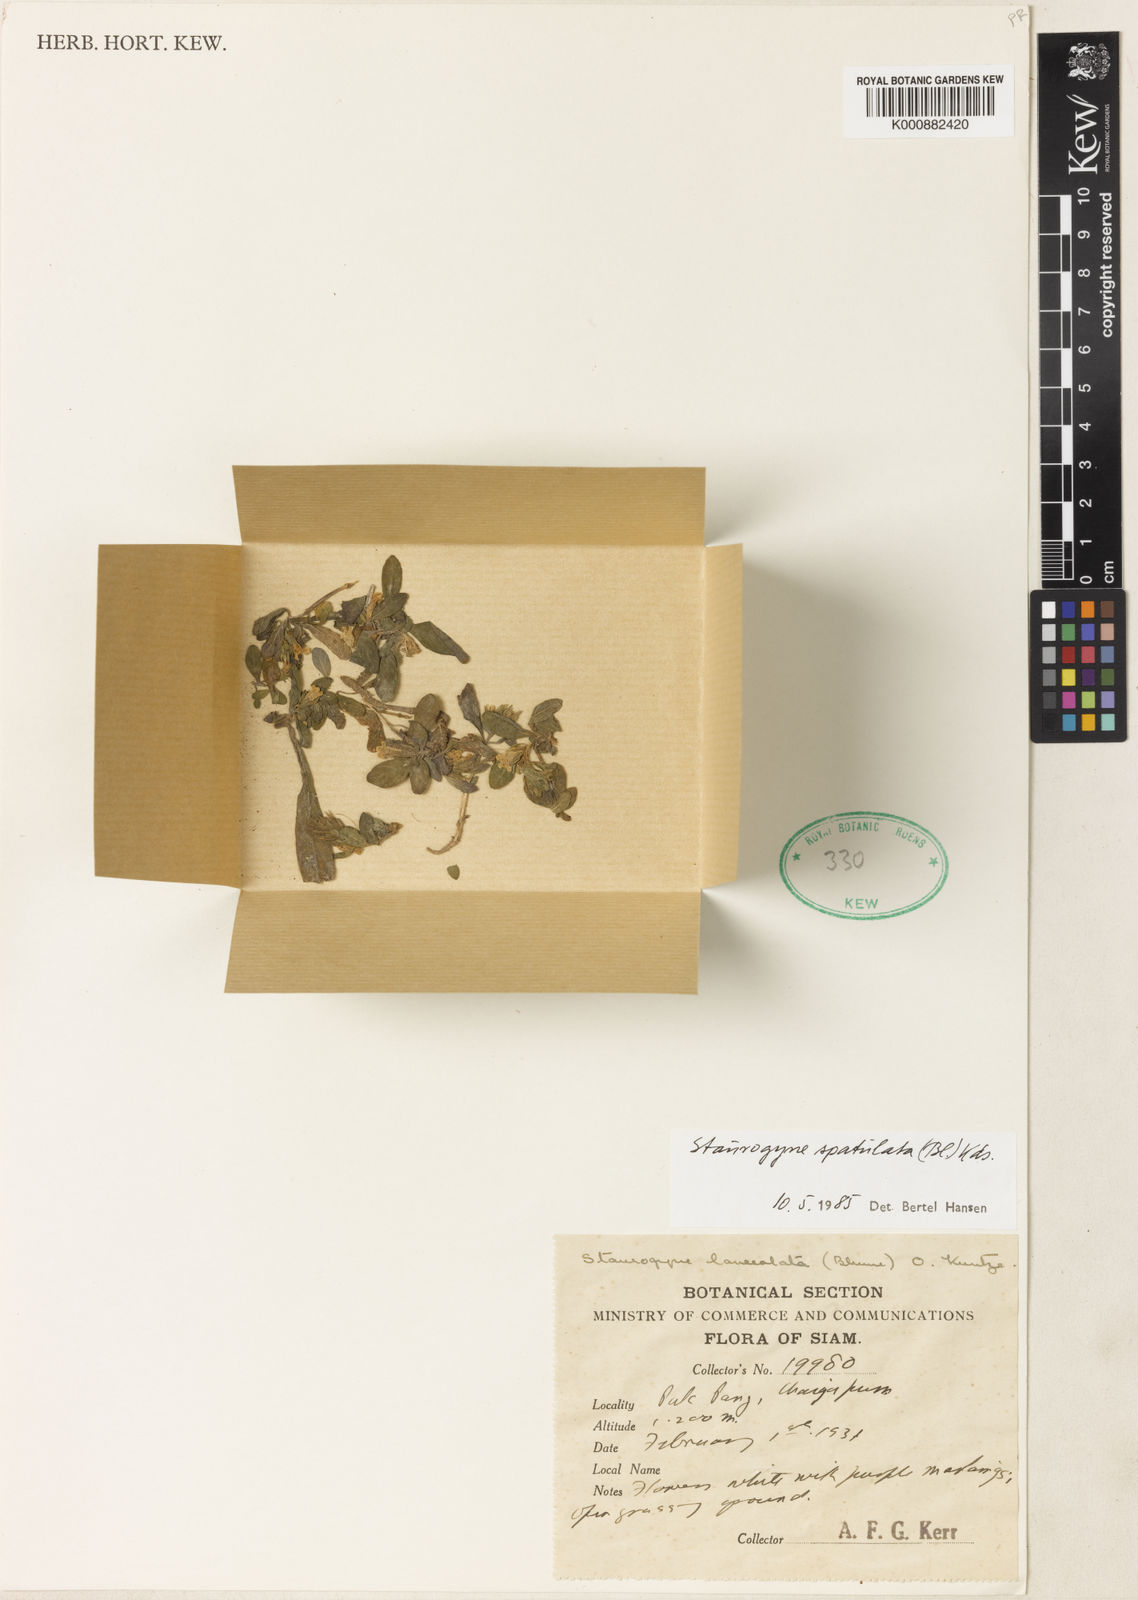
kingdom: Plantae
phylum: Tracheophyta
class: Magnoliopsida
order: Lamiales
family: Acanthaceae
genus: Staurogyne
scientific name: Staurogyne
